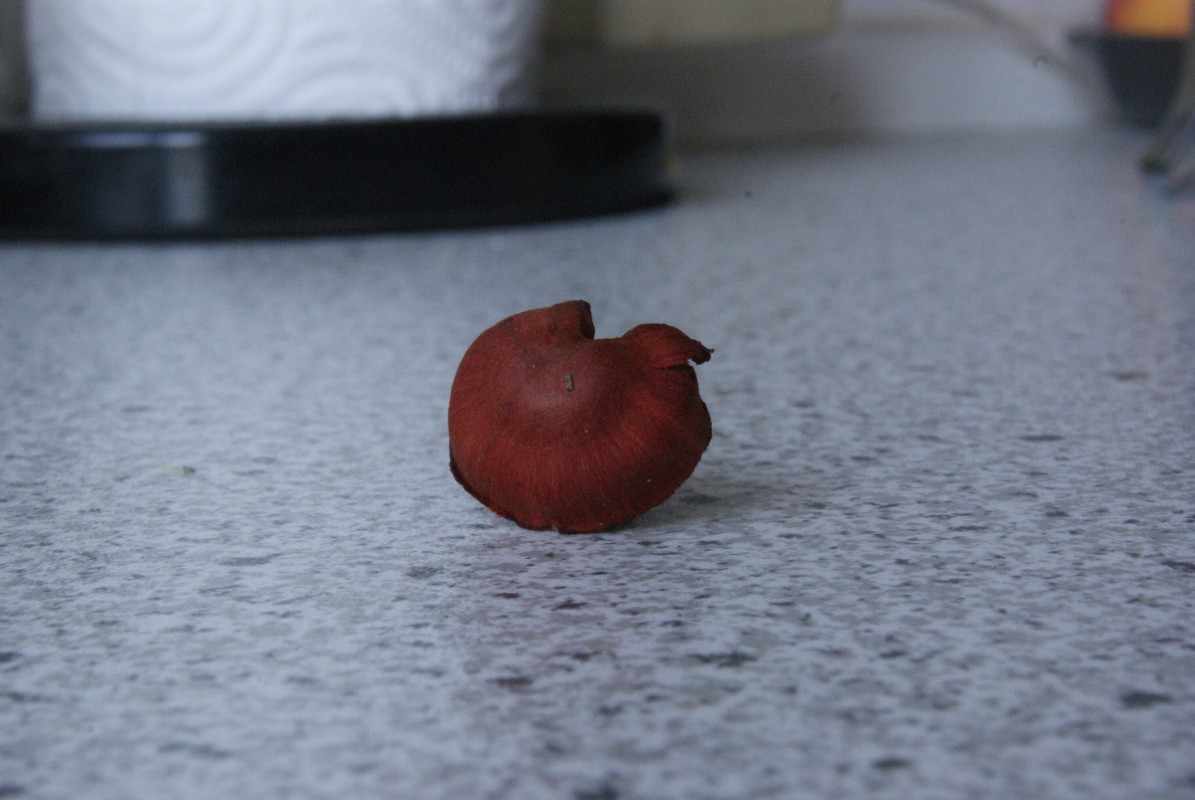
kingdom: Fungi
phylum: Basidiomycota
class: Agaricomycetes
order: Agaricales
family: Cortinariaceae
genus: Cortinarius
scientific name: Cortinarius sanguineus
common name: blodrød slørhat
